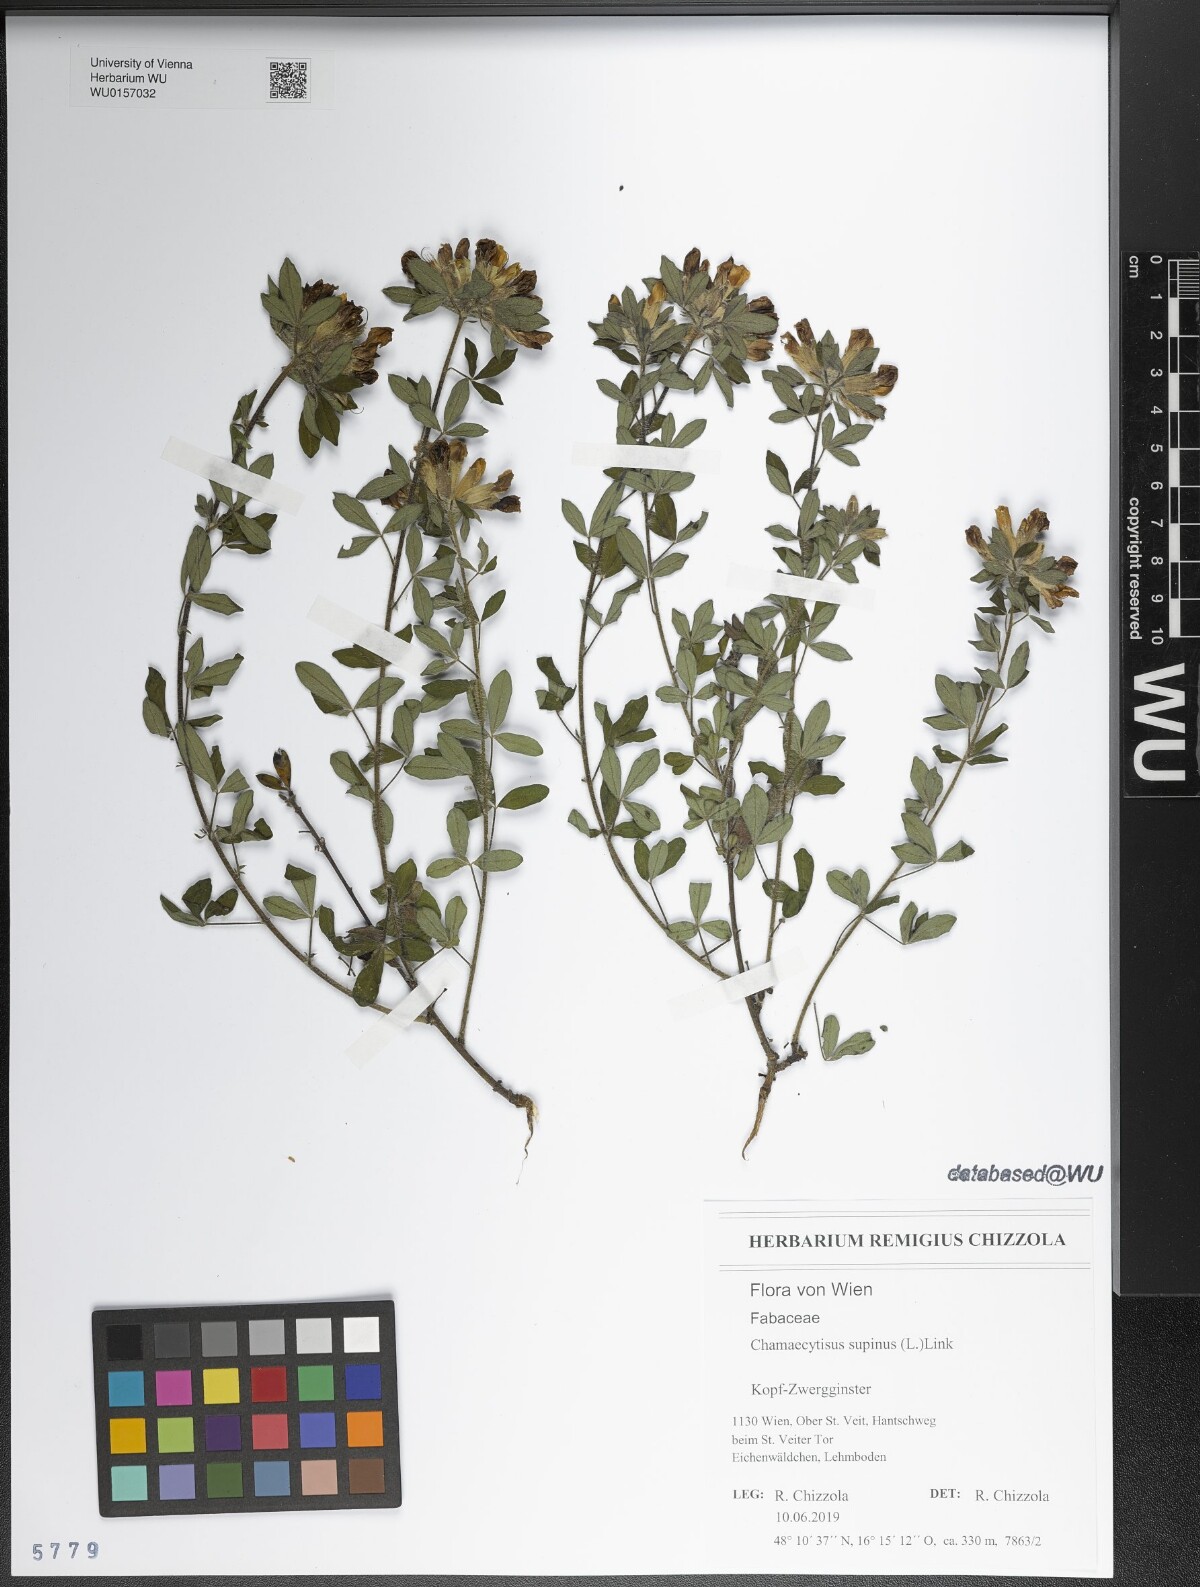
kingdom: Plantae
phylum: Tracheophyta
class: Magnoliopsida
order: Fabales
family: Fabaceae
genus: Chamaecytisus
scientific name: Chamaecytisus supinus
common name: Clustered broom
